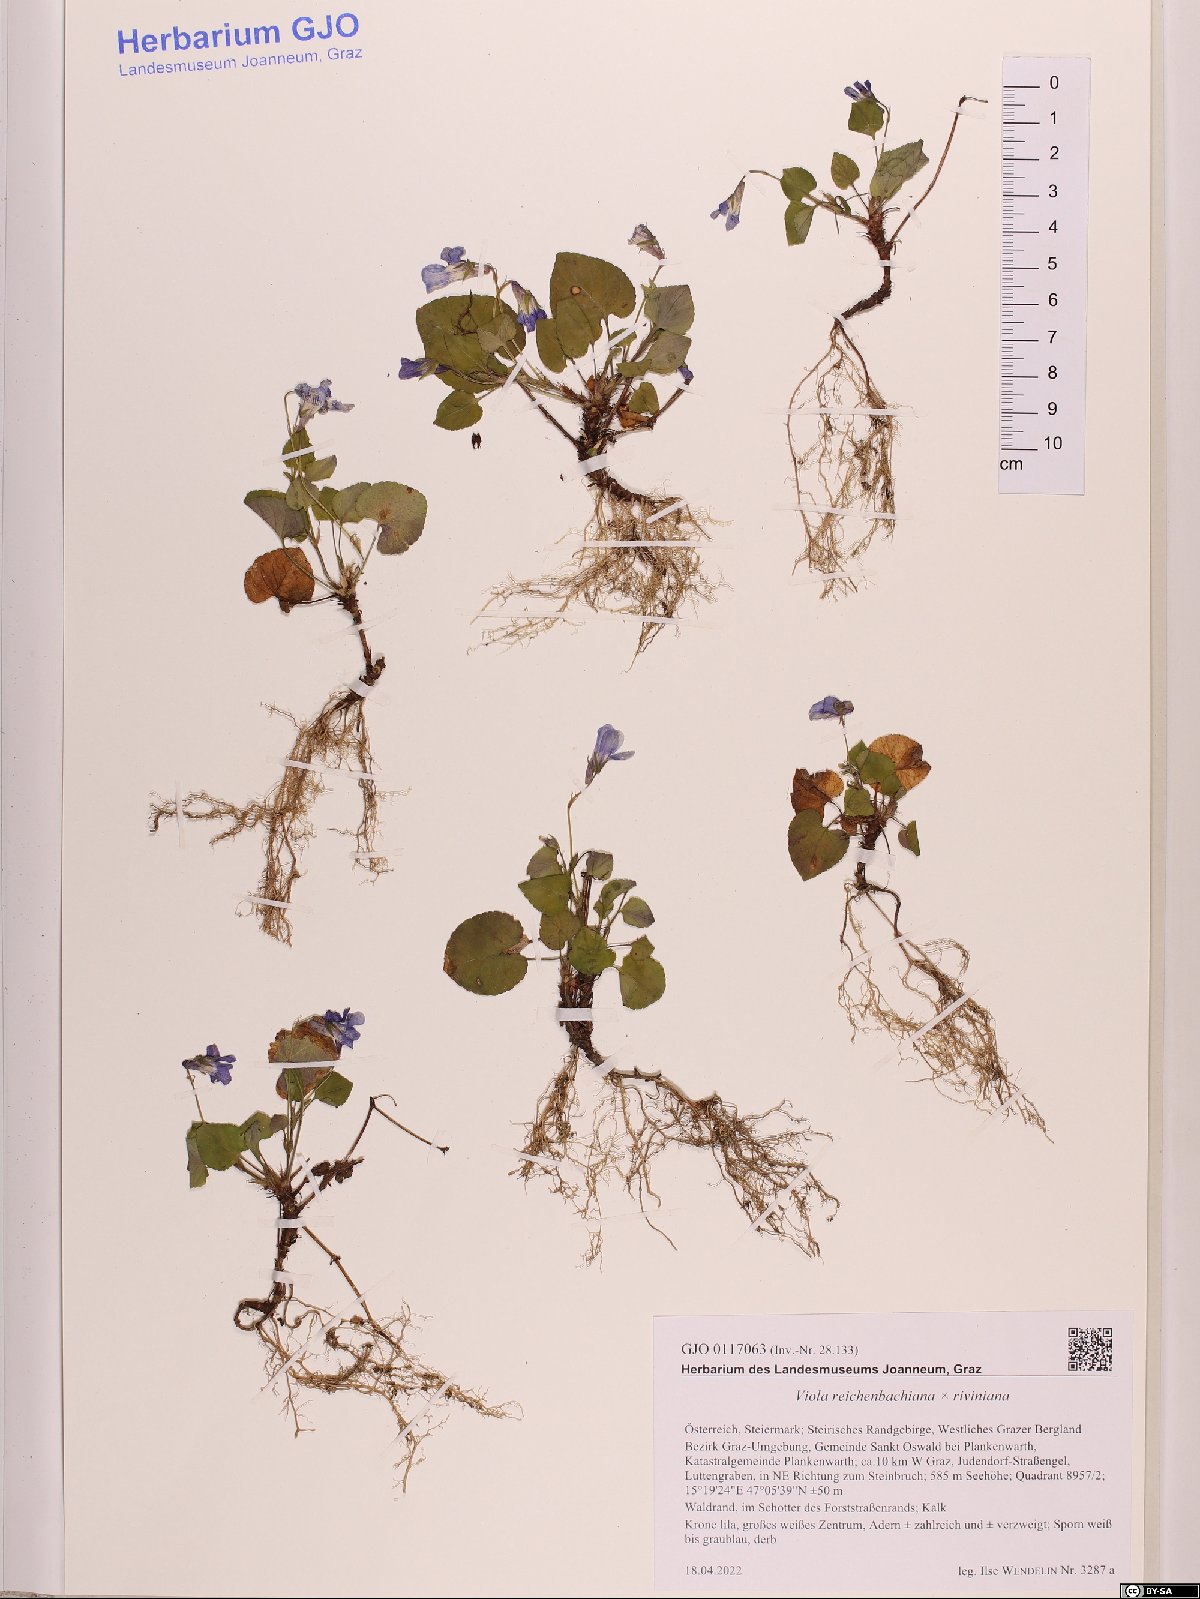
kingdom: Plantae
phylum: Tracheophyta
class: Magnoliopsida
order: Malpighiales
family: Violaceae
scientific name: Violaceae
